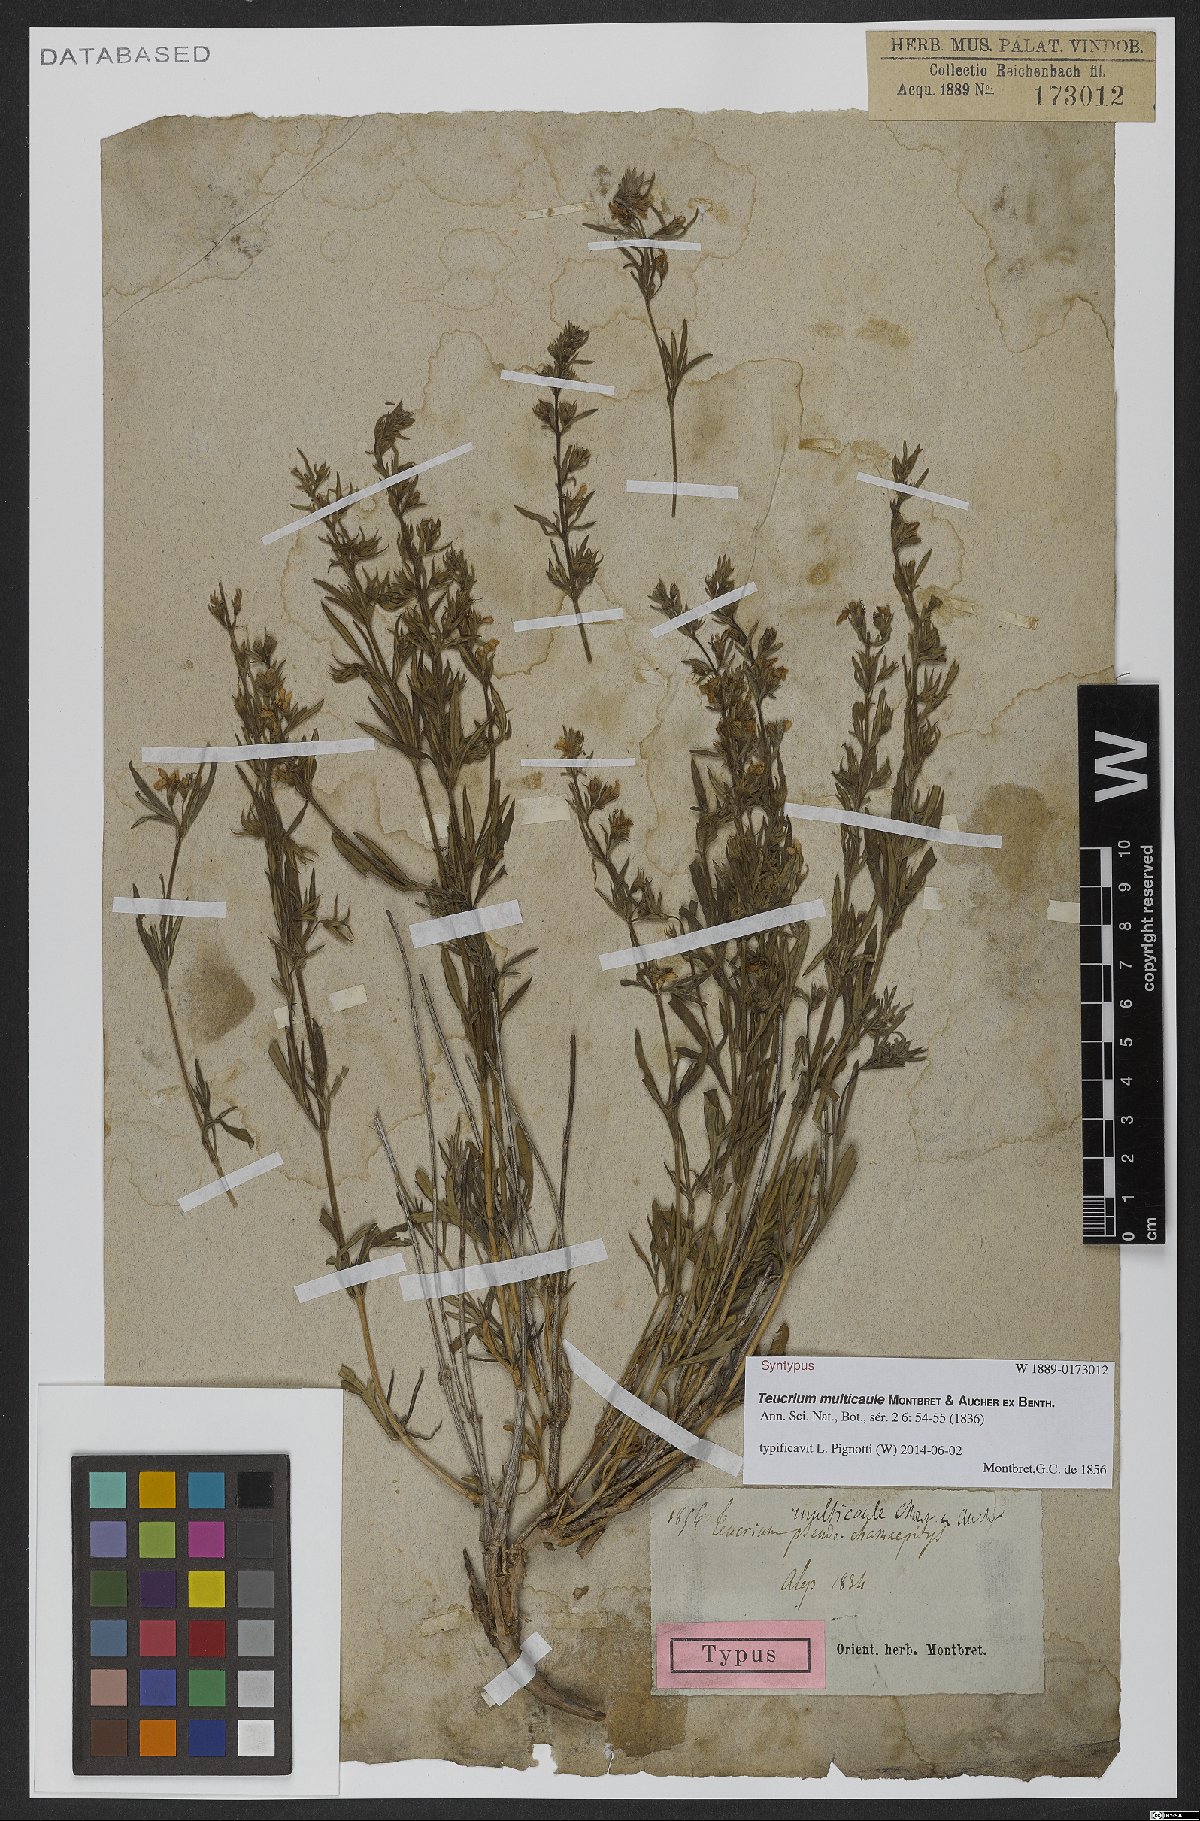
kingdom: Plantae
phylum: Tracheophyta
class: Magnoliopsida
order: Lamiales
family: Lamiaceae
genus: Teucrium
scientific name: Teucrium multicaule
